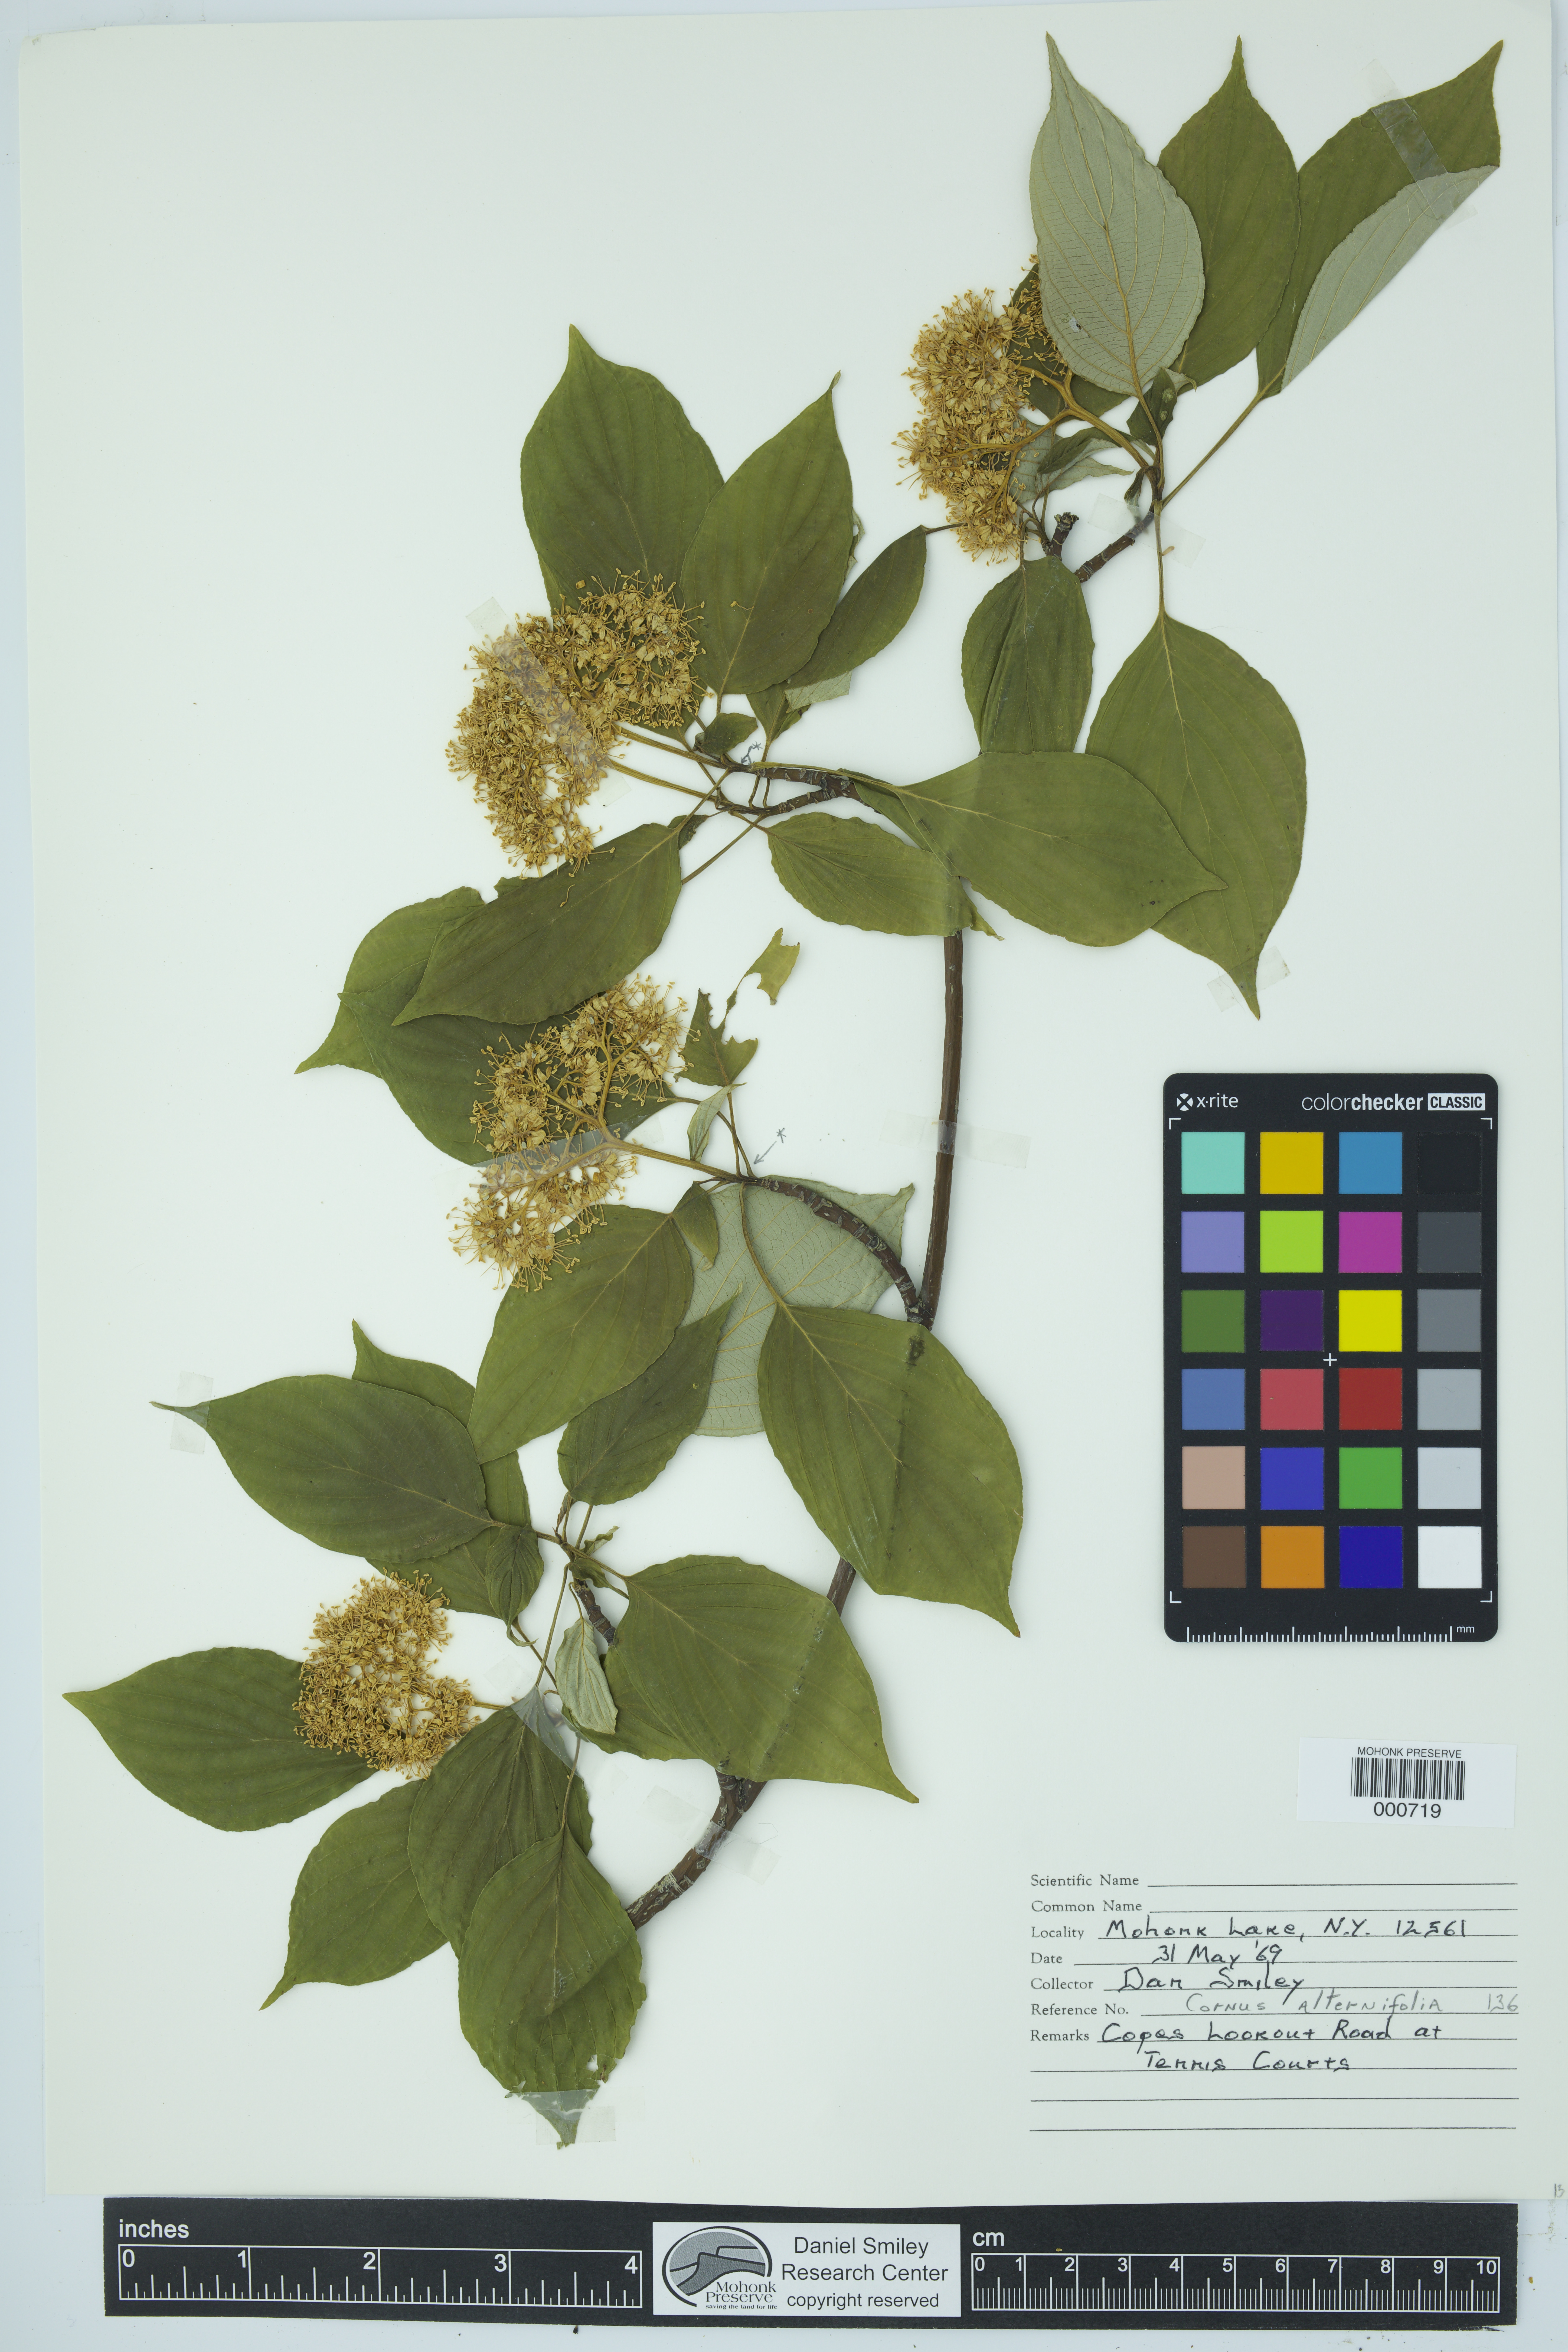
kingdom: Plantae
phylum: Tracheophyta
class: Magnoliopsida
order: Cornales
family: Cornaceae
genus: Cornus
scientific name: Cornus alternifolia
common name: Pagoda dogwood
